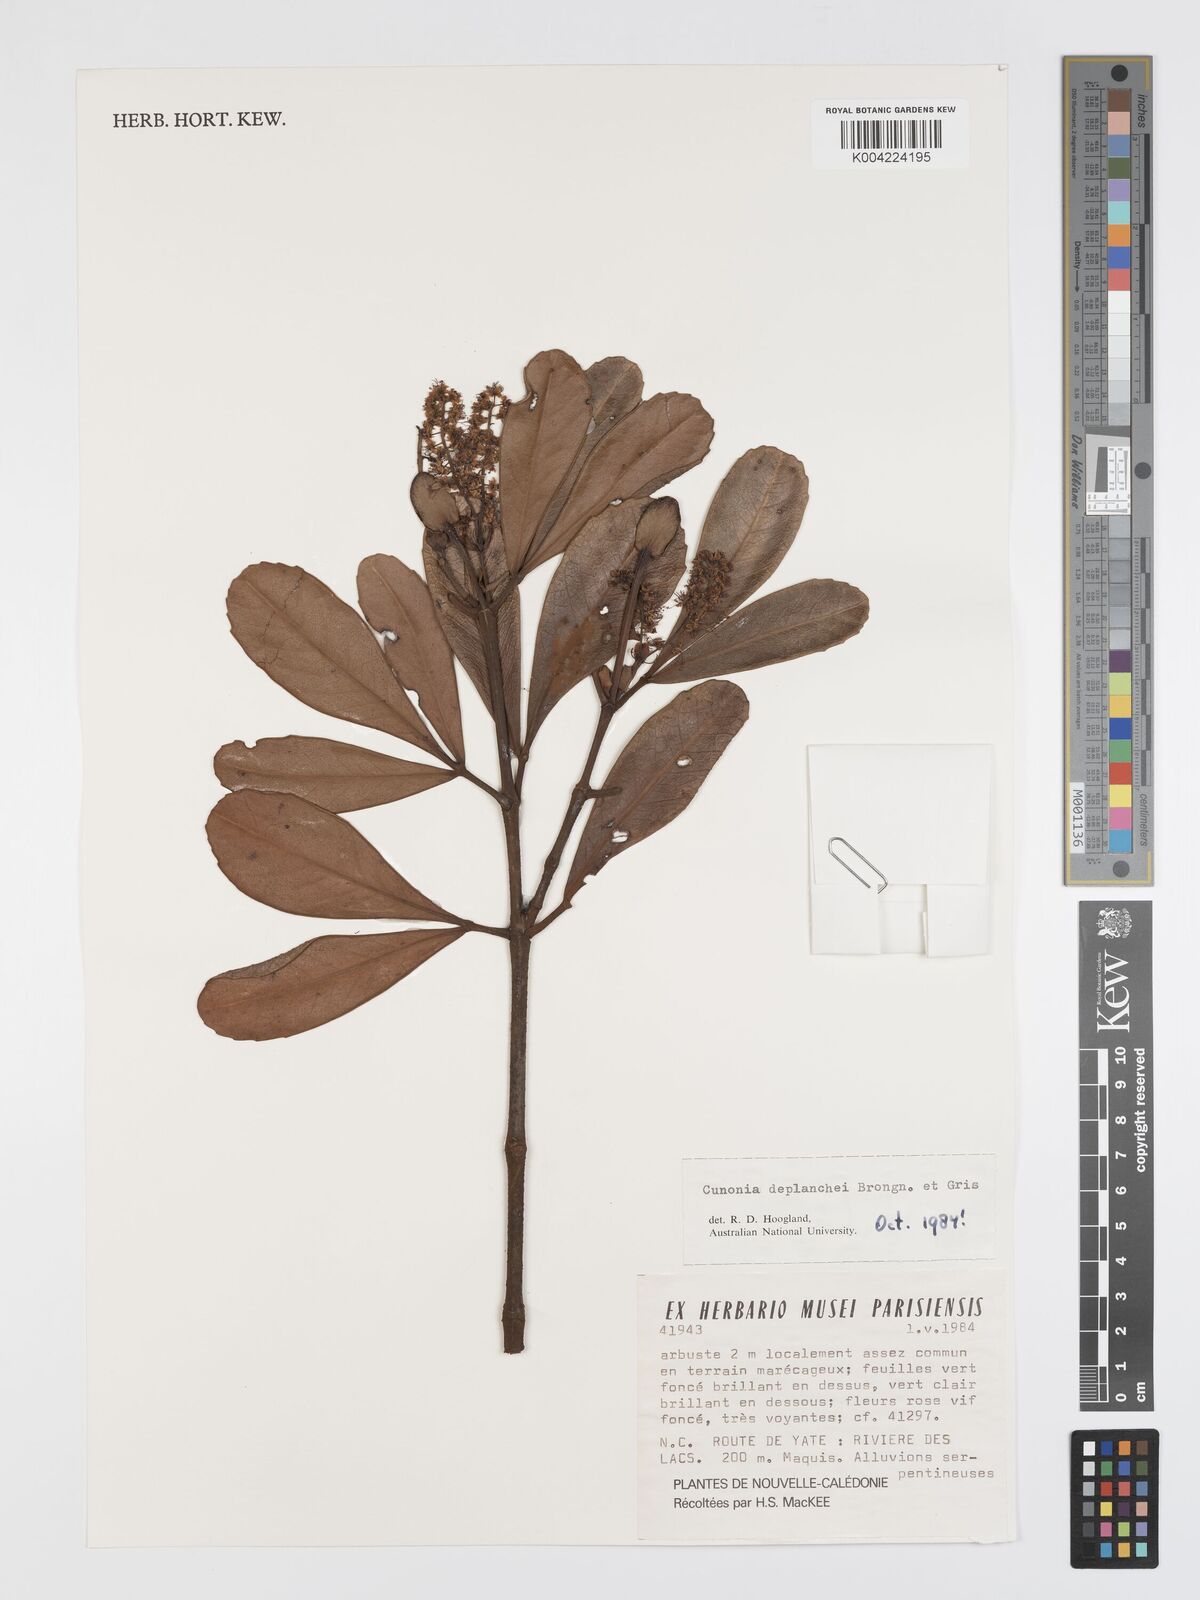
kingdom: Plantae
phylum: Tracheophyta
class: Magnoliopsida
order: Oxalidales
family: Cunoniaceae
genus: Cunonia
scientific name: Cunonia deplanchei
